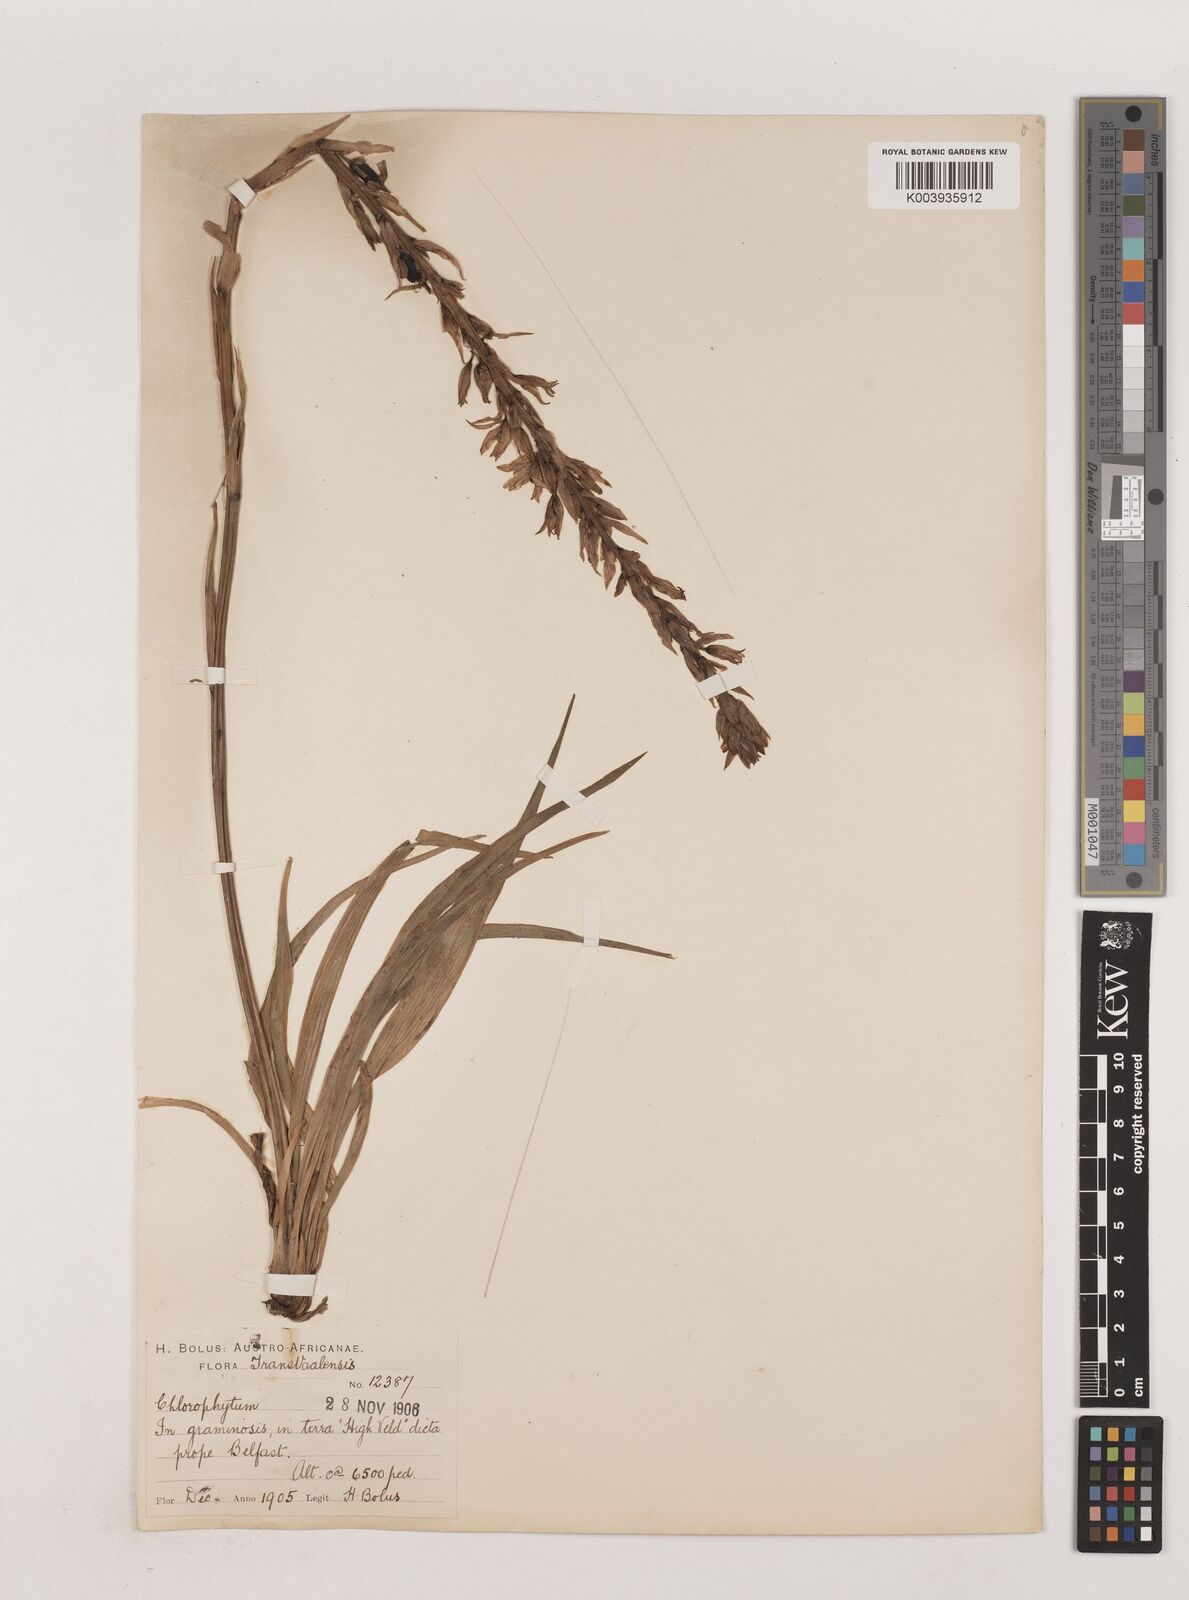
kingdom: Plantae
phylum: Tracheophyta
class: Liliopsida
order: Asparagales
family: Asparagaceae
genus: Chlorophytum
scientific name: Chlorophytum bowkeri
